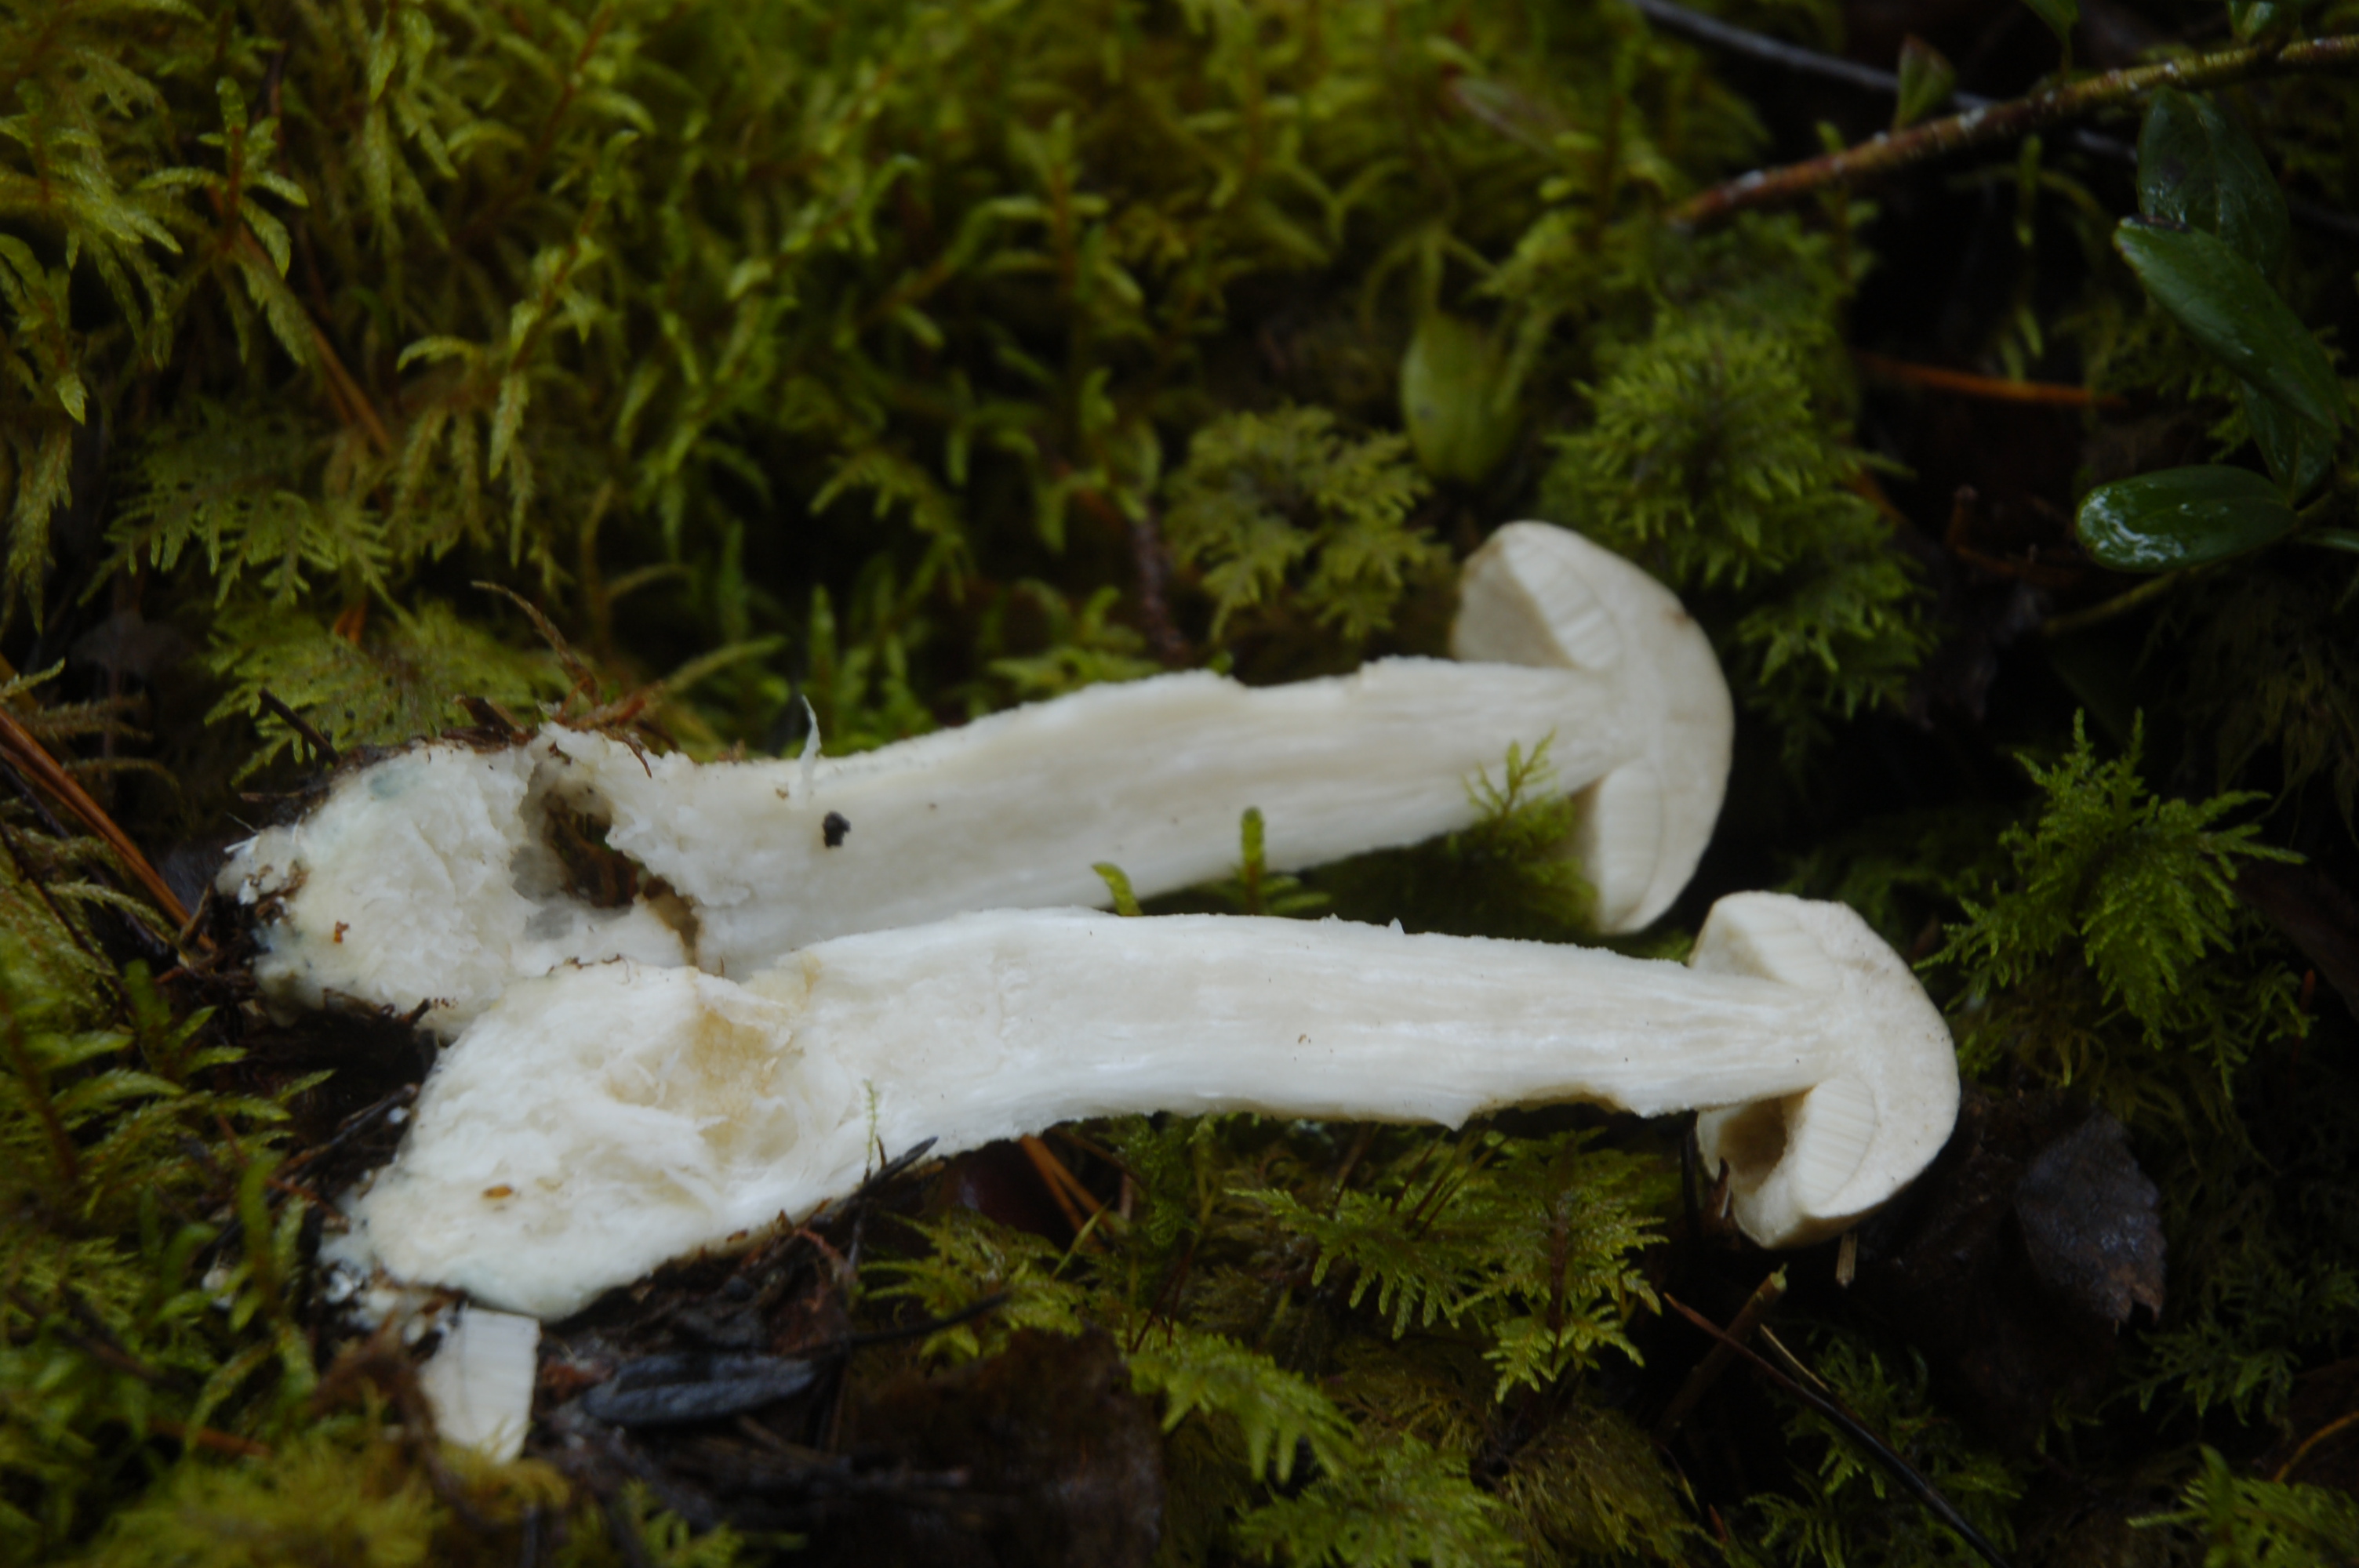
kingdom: Fungi
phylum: Basidiomycota
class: Agaricomycetes
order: Boletales
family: Boletaceae
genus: Leccinum
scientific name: Leccinum holopus
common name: Ghost bolete
